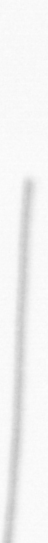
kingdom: Chromista
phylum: Ochrophyta
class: Bacillariophyceae
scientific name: Bacillariophyceae
